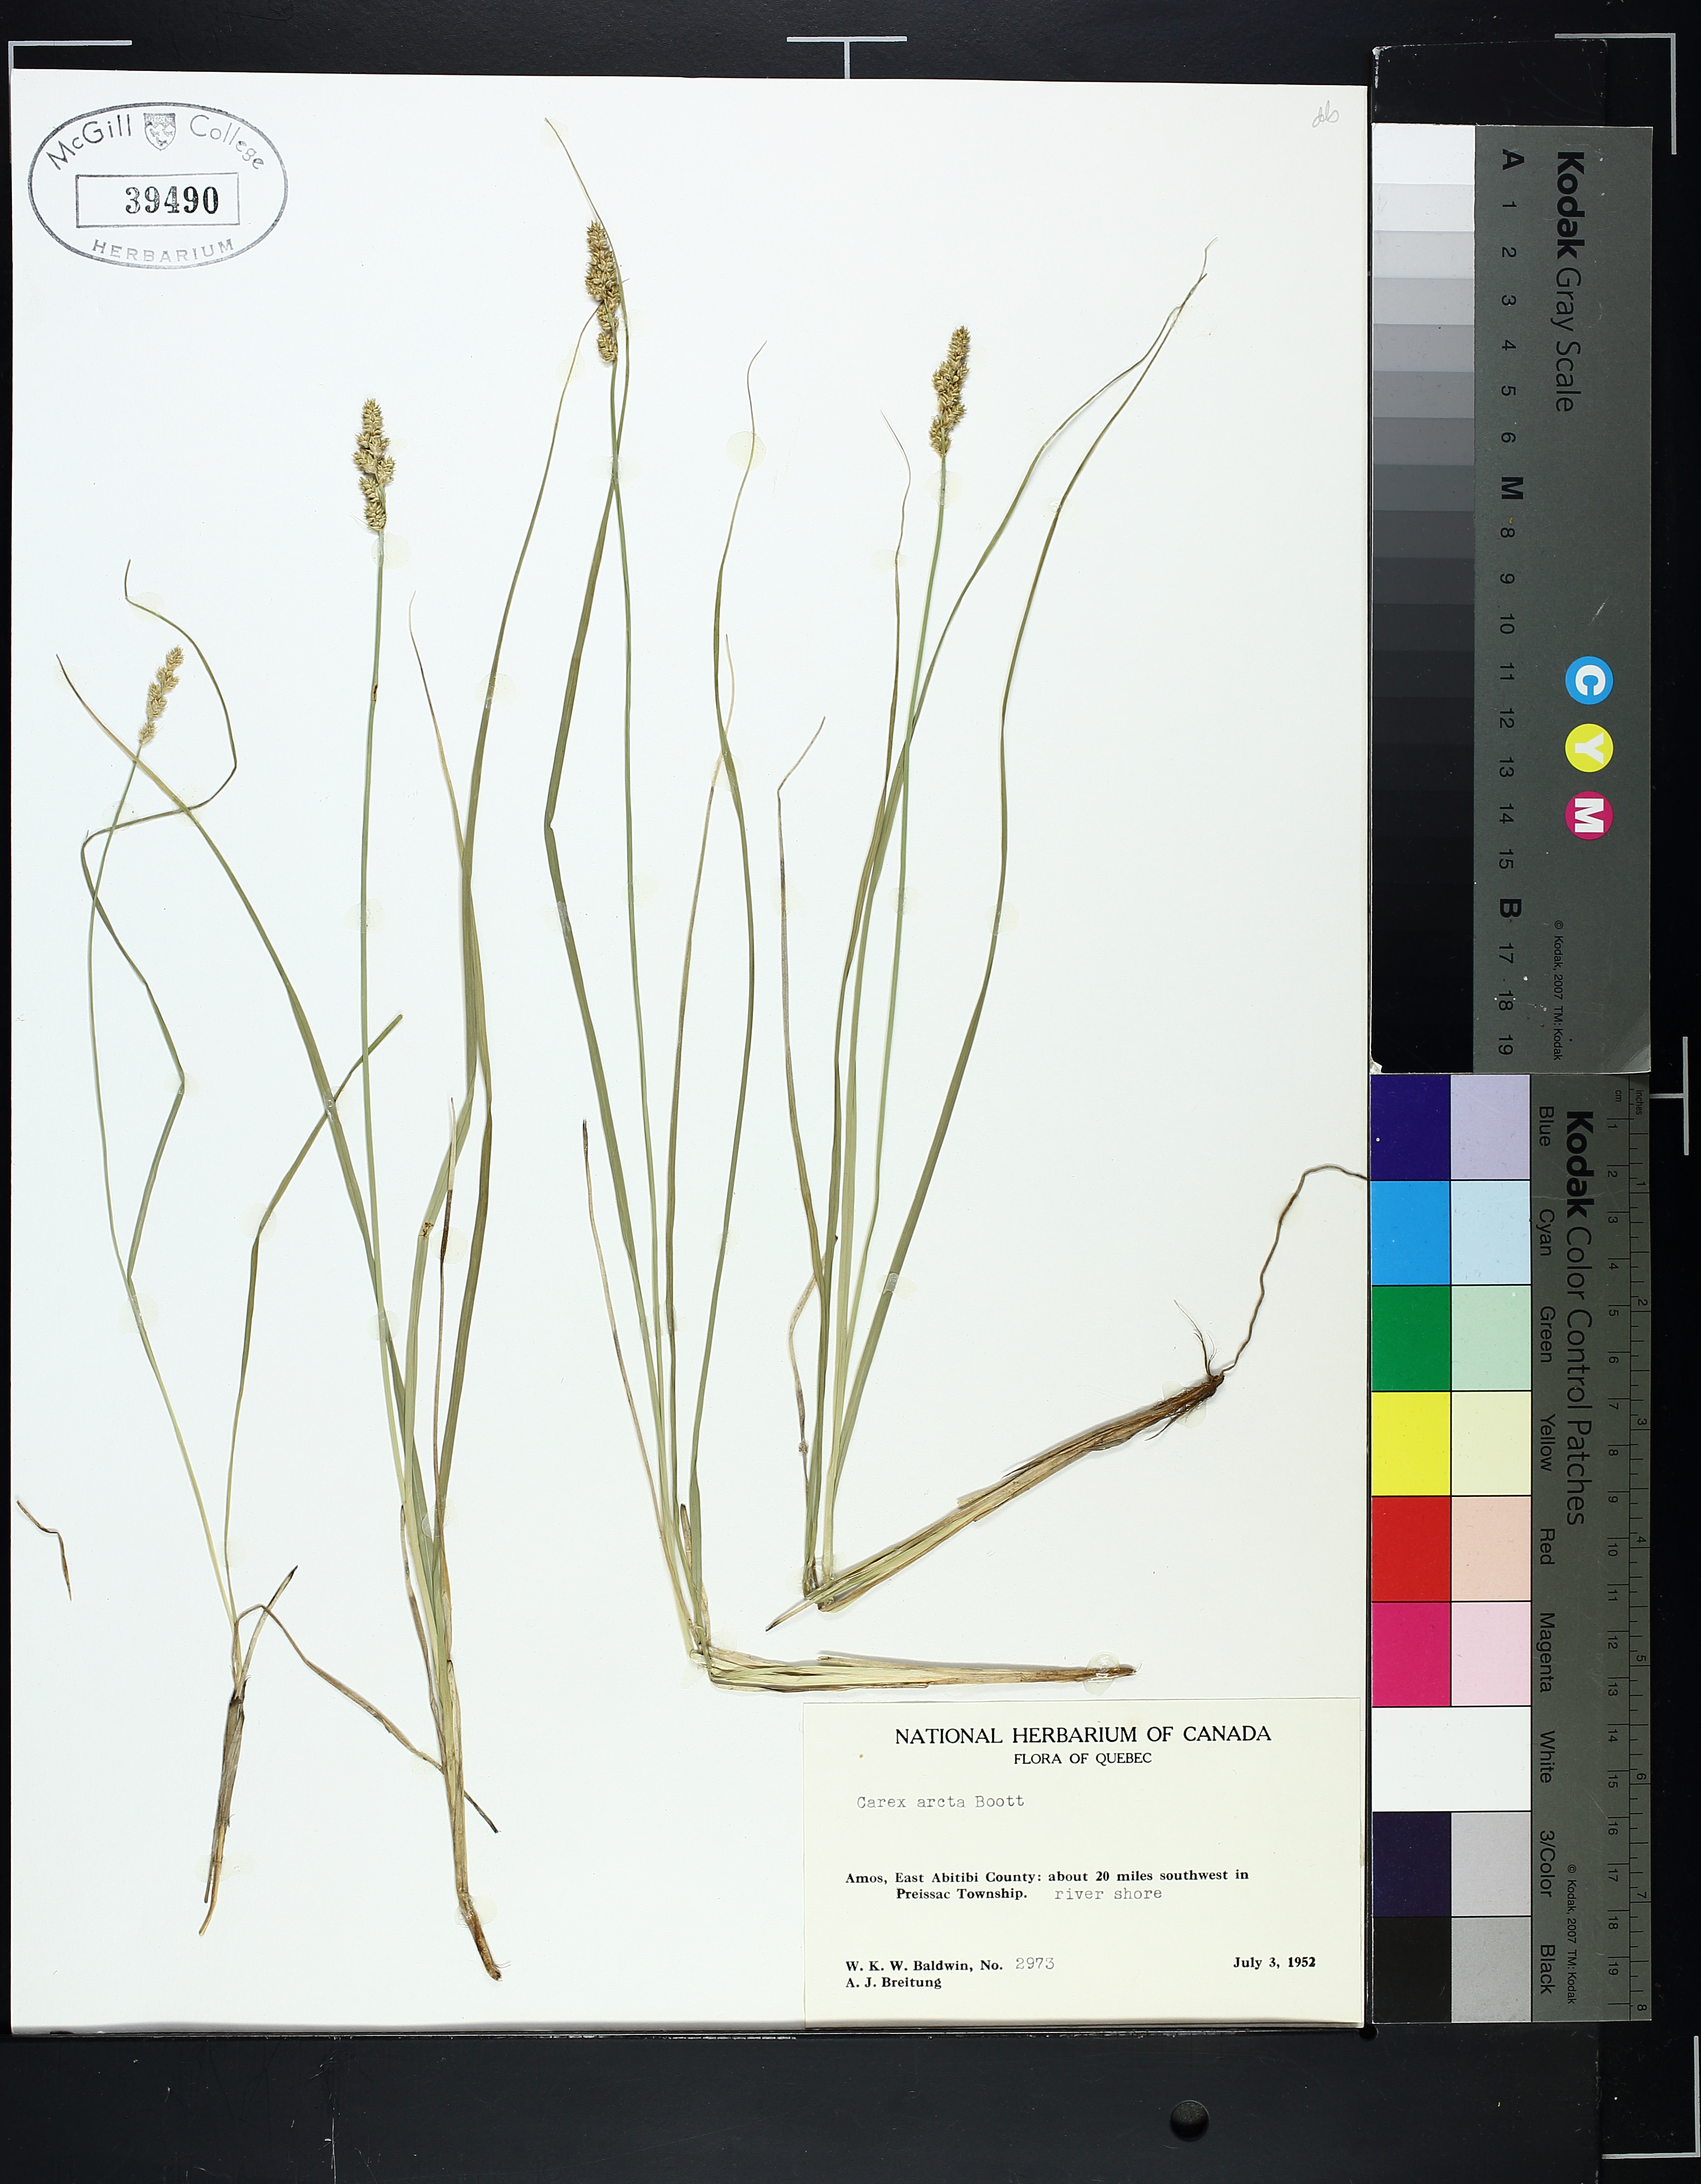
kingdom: Plantae
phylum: Tracheophyta
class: Liliopsida
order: Poales
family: Cyperaceae
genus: Carex
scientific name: Carex arcta
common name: Bear sedge
